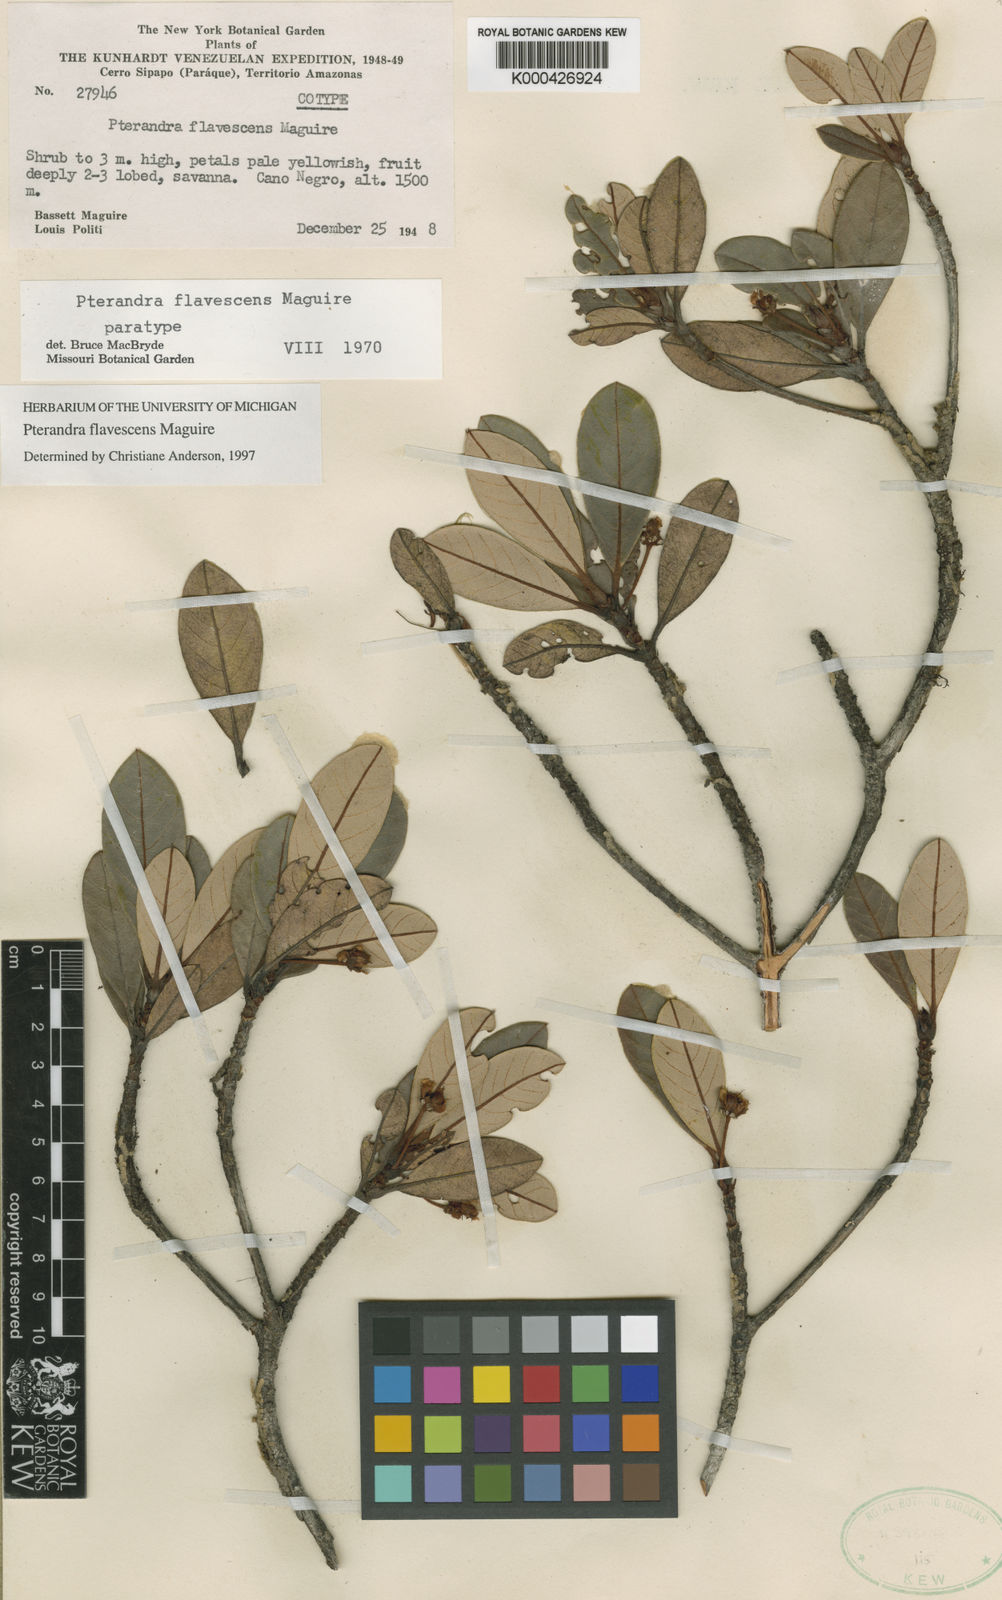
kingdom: Plantae
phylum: Tracheophyta
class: Magnoliopsida
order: Malpighiales
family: Malpighiaceae
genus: Pterandra
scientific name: Pterandra flavescens
